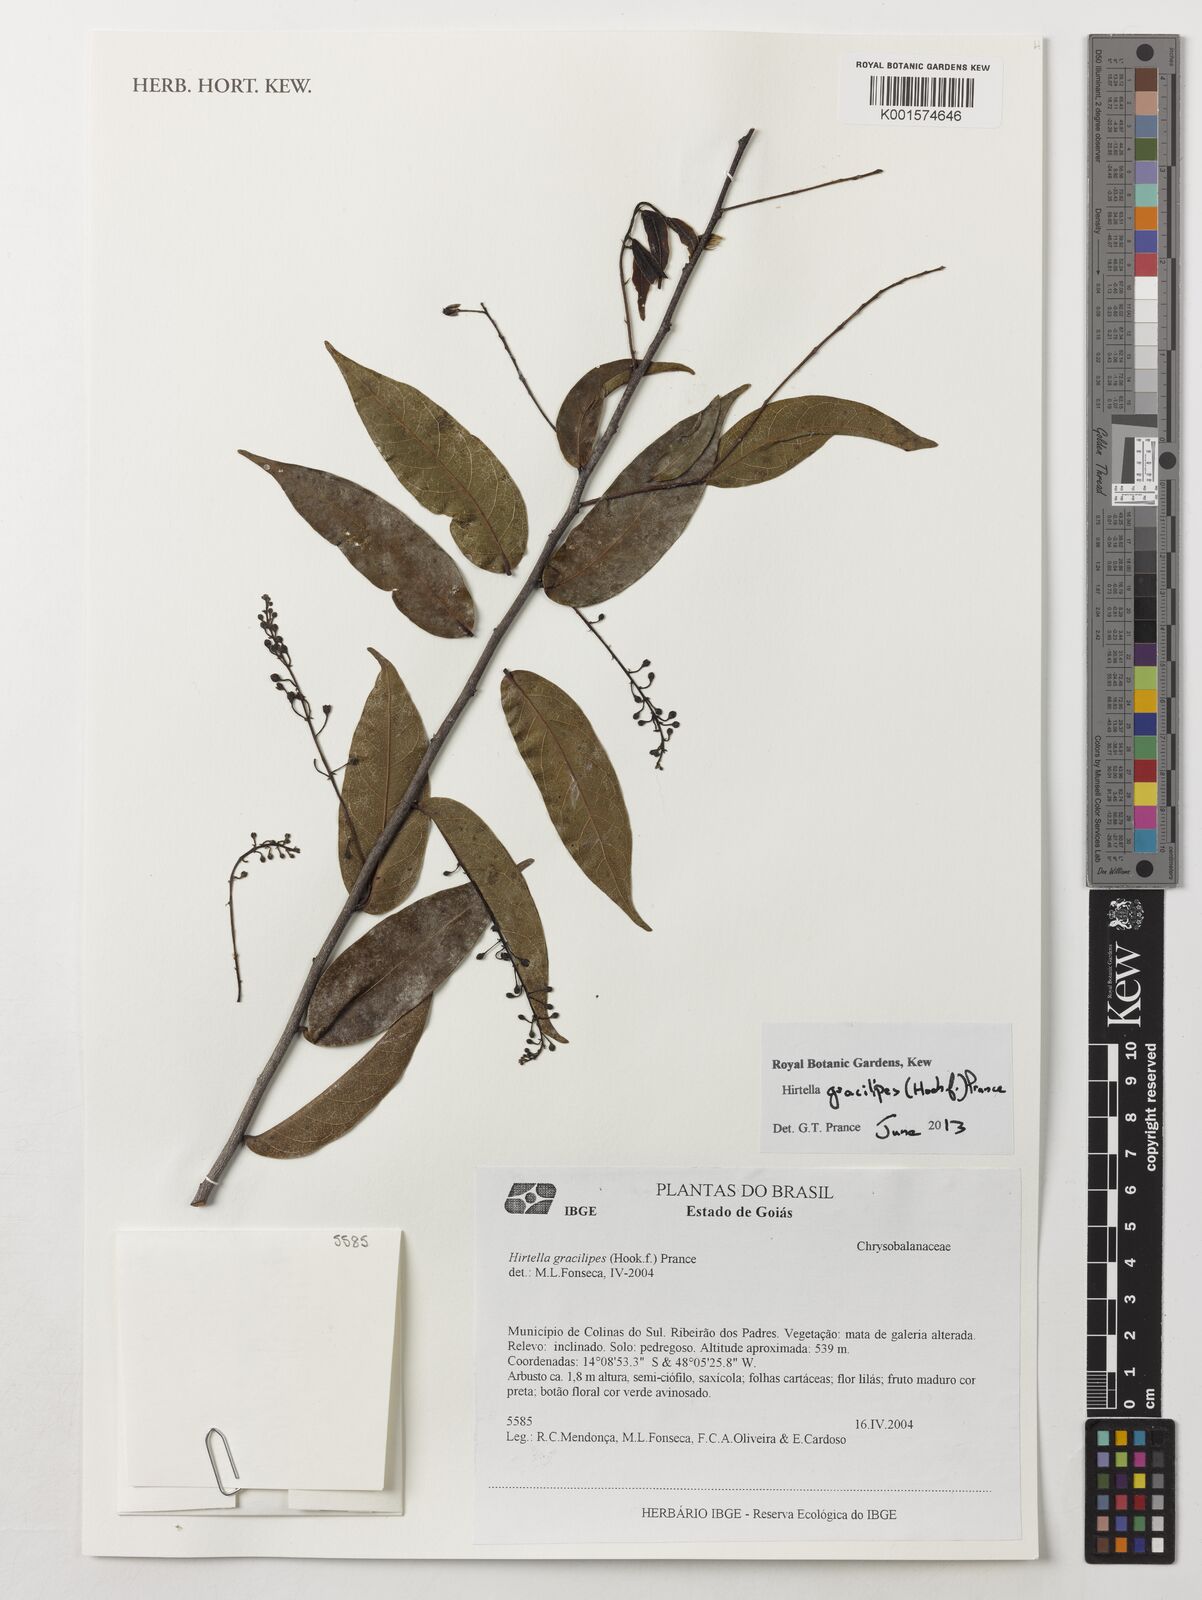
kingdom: Plantae
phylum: Tracheophyta
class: Magnoliopsida
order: Malpighiales
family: Chrysobalanaceae
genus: Hirtella
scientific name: Hirtella gracilipes
